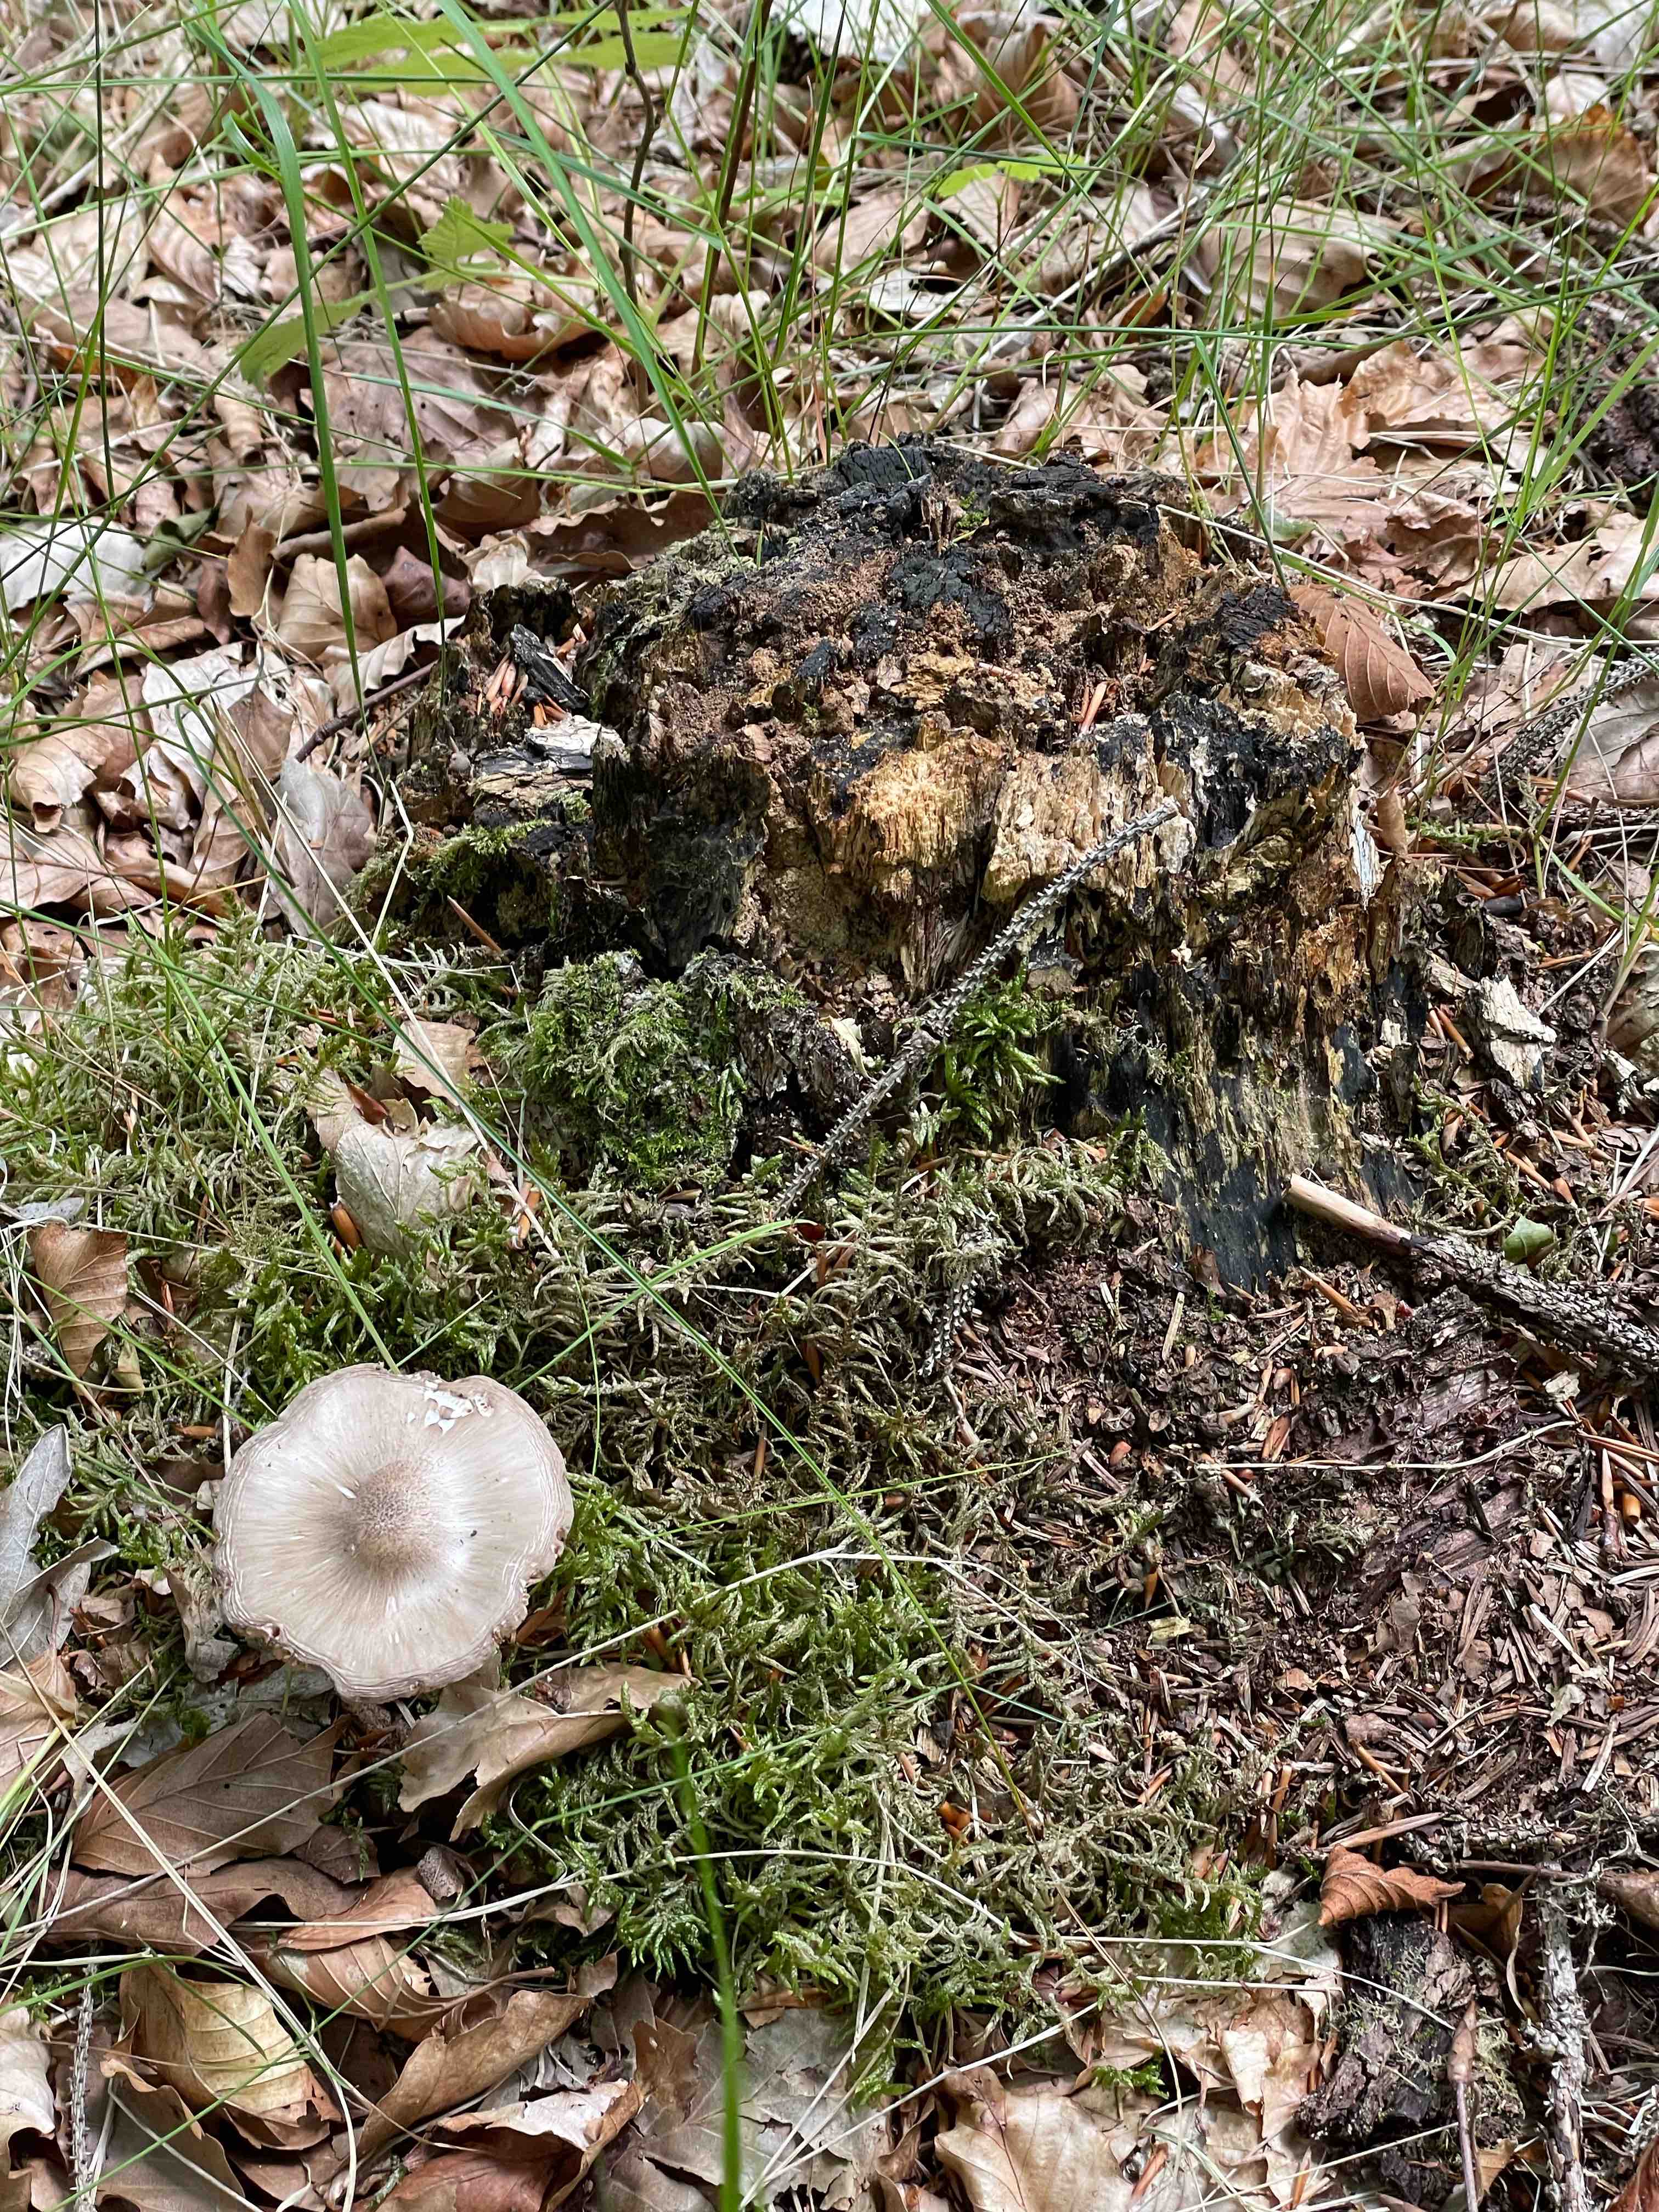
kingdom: Fungi
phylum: Basidiomycota
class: Agaricomycetes
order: Agaricales
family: Pluteaceae
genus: Pluteus
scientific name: Pluteus
